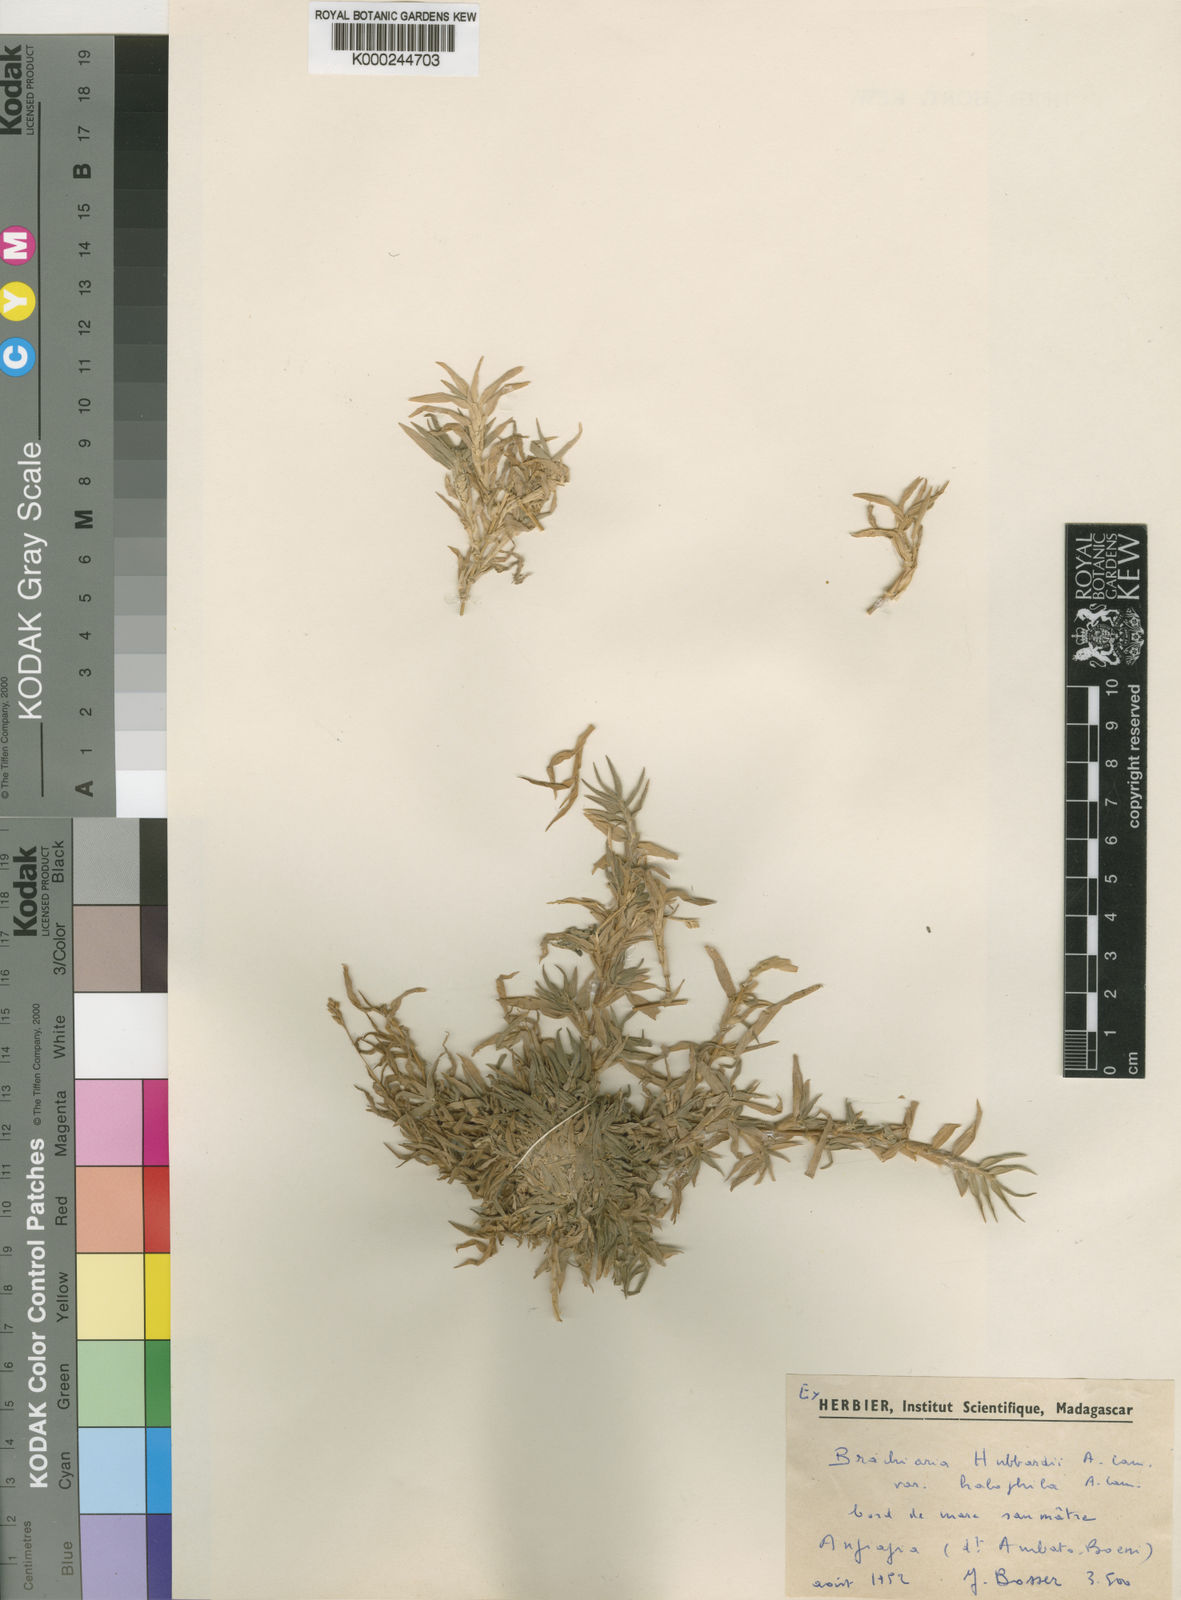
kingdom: Plantae
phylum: Tracheophyta
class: Liliopsida
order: Poales
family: Poaceae
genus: Panicum
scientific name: Panicum
